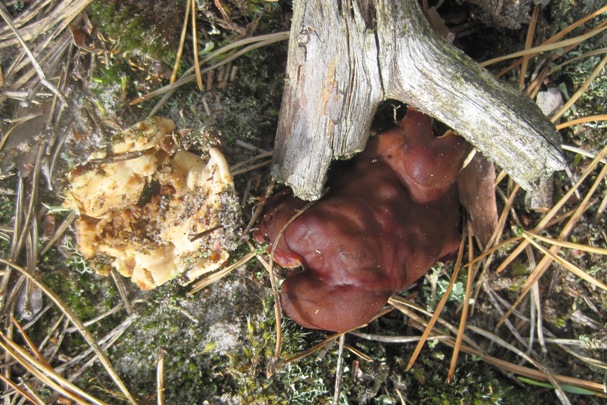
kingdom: Fungi
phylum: Ascomycota
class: Pezizomycetes
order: Pezizales
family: Rhizinaceae
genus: Rhizina
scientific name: Rhizina undulata
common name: rodmorkel
